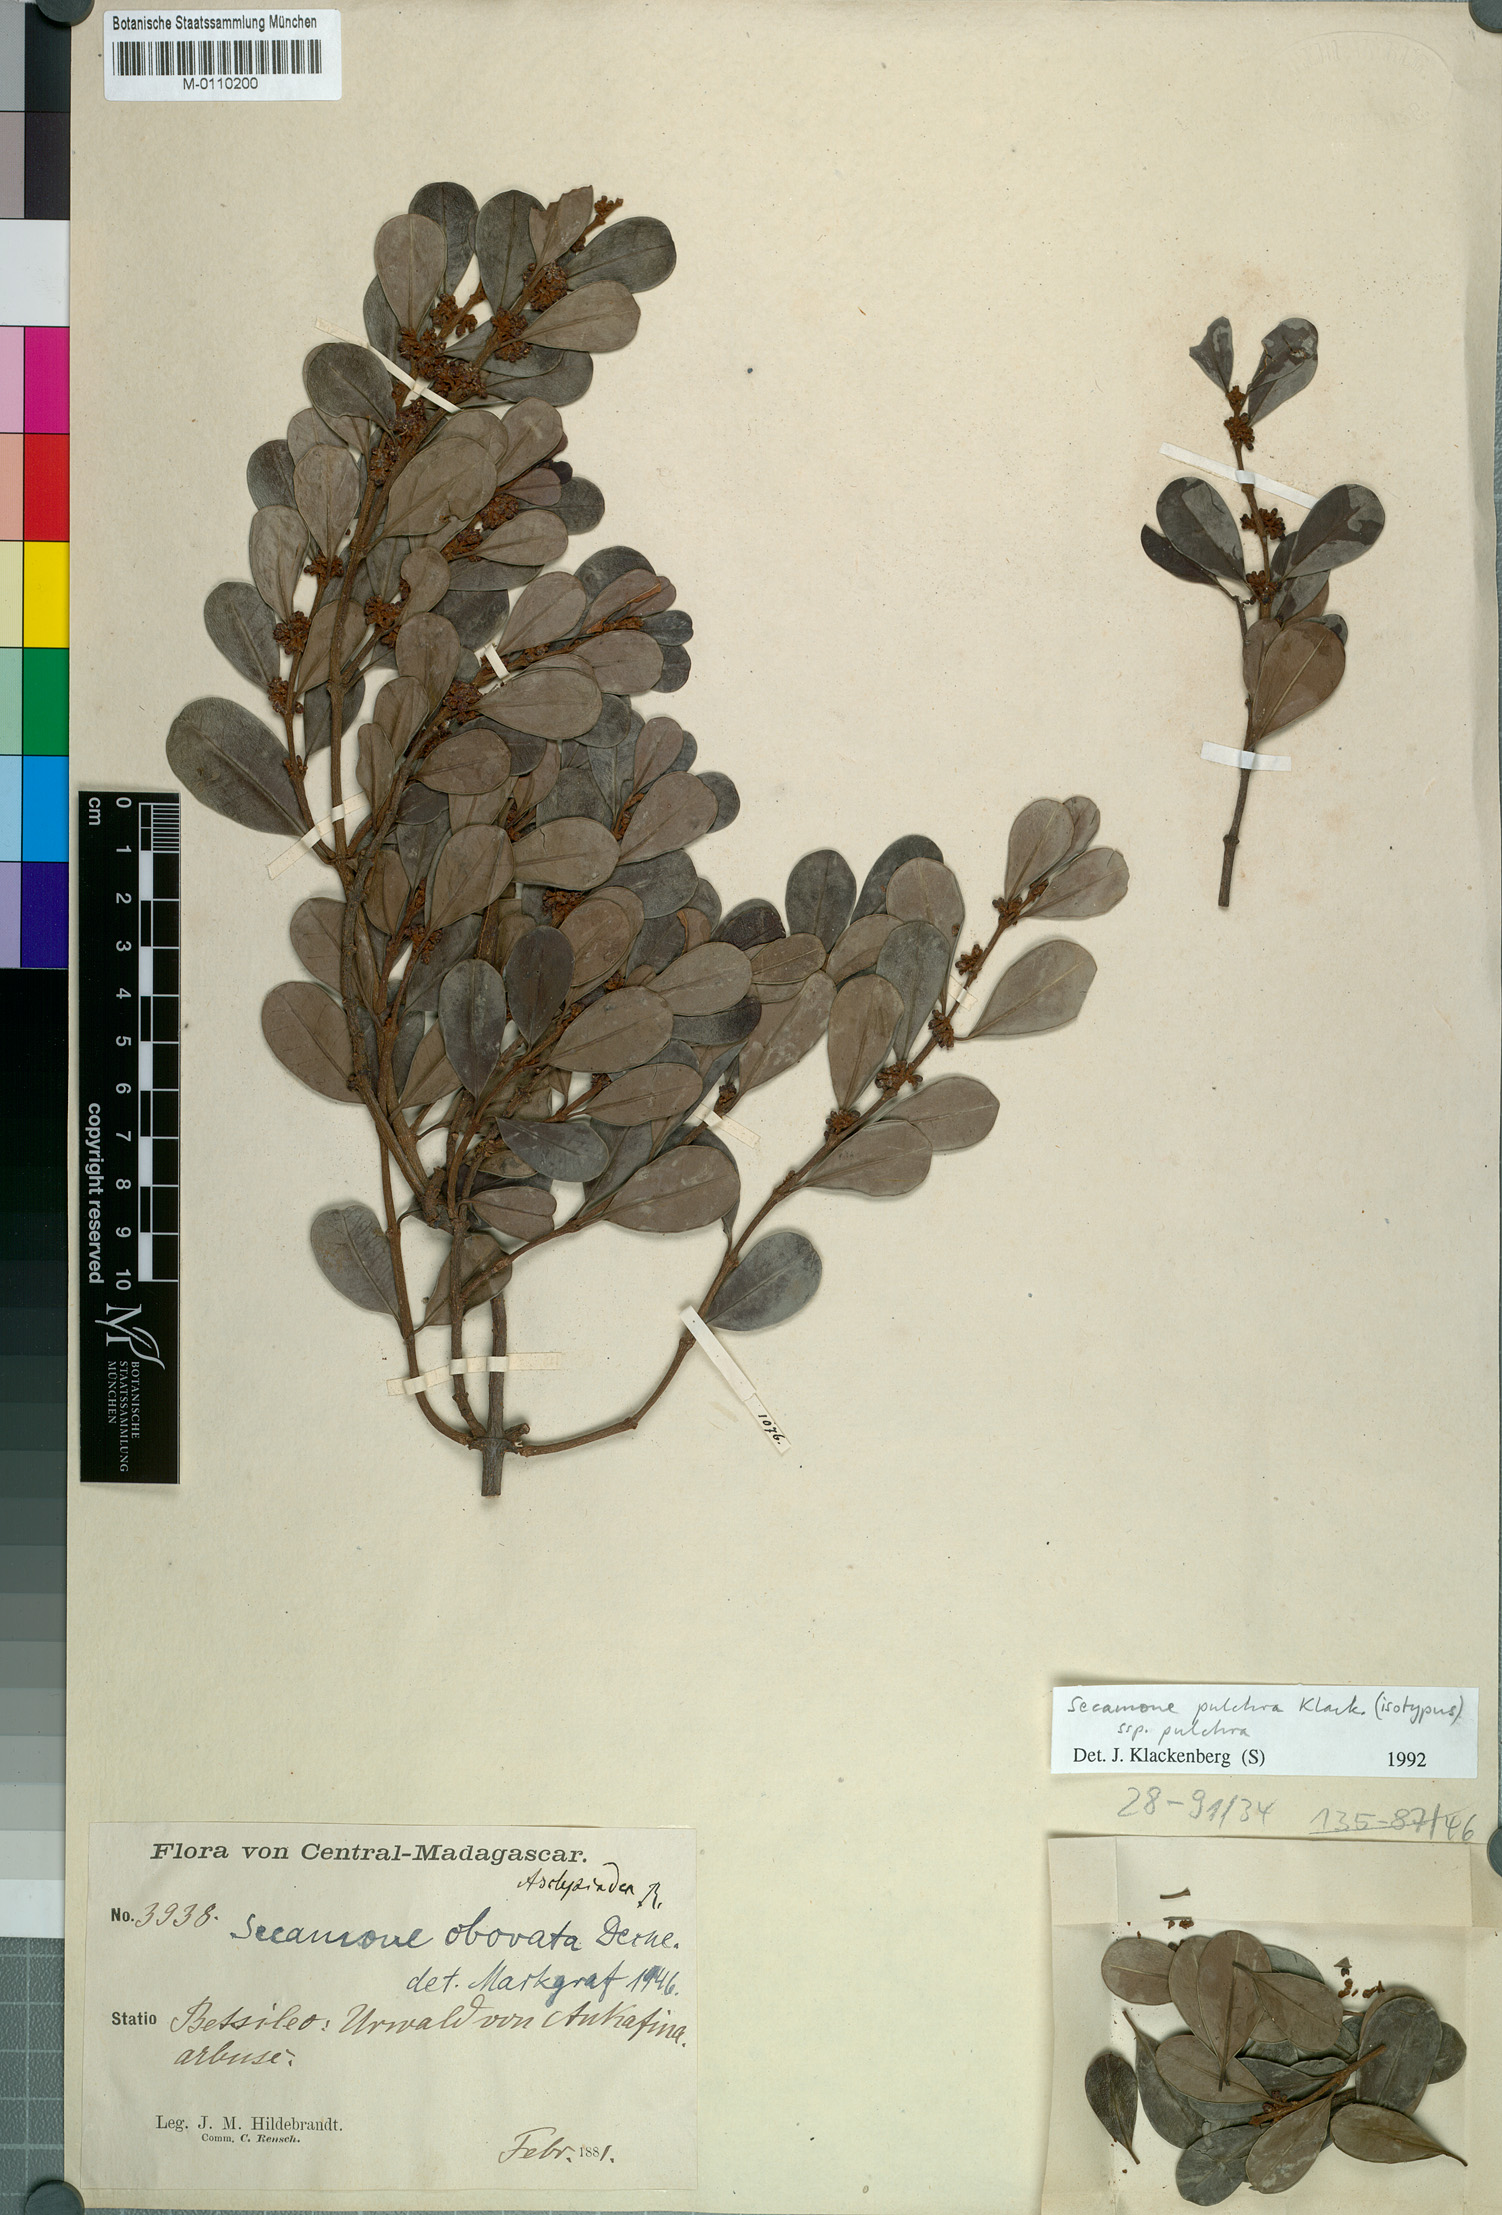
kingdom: Plantae
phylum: Tracheophyta
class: Magnoliopsida
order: Gentianales
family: Apocynaceae
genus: Secamone
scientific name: Secamone pulchra
